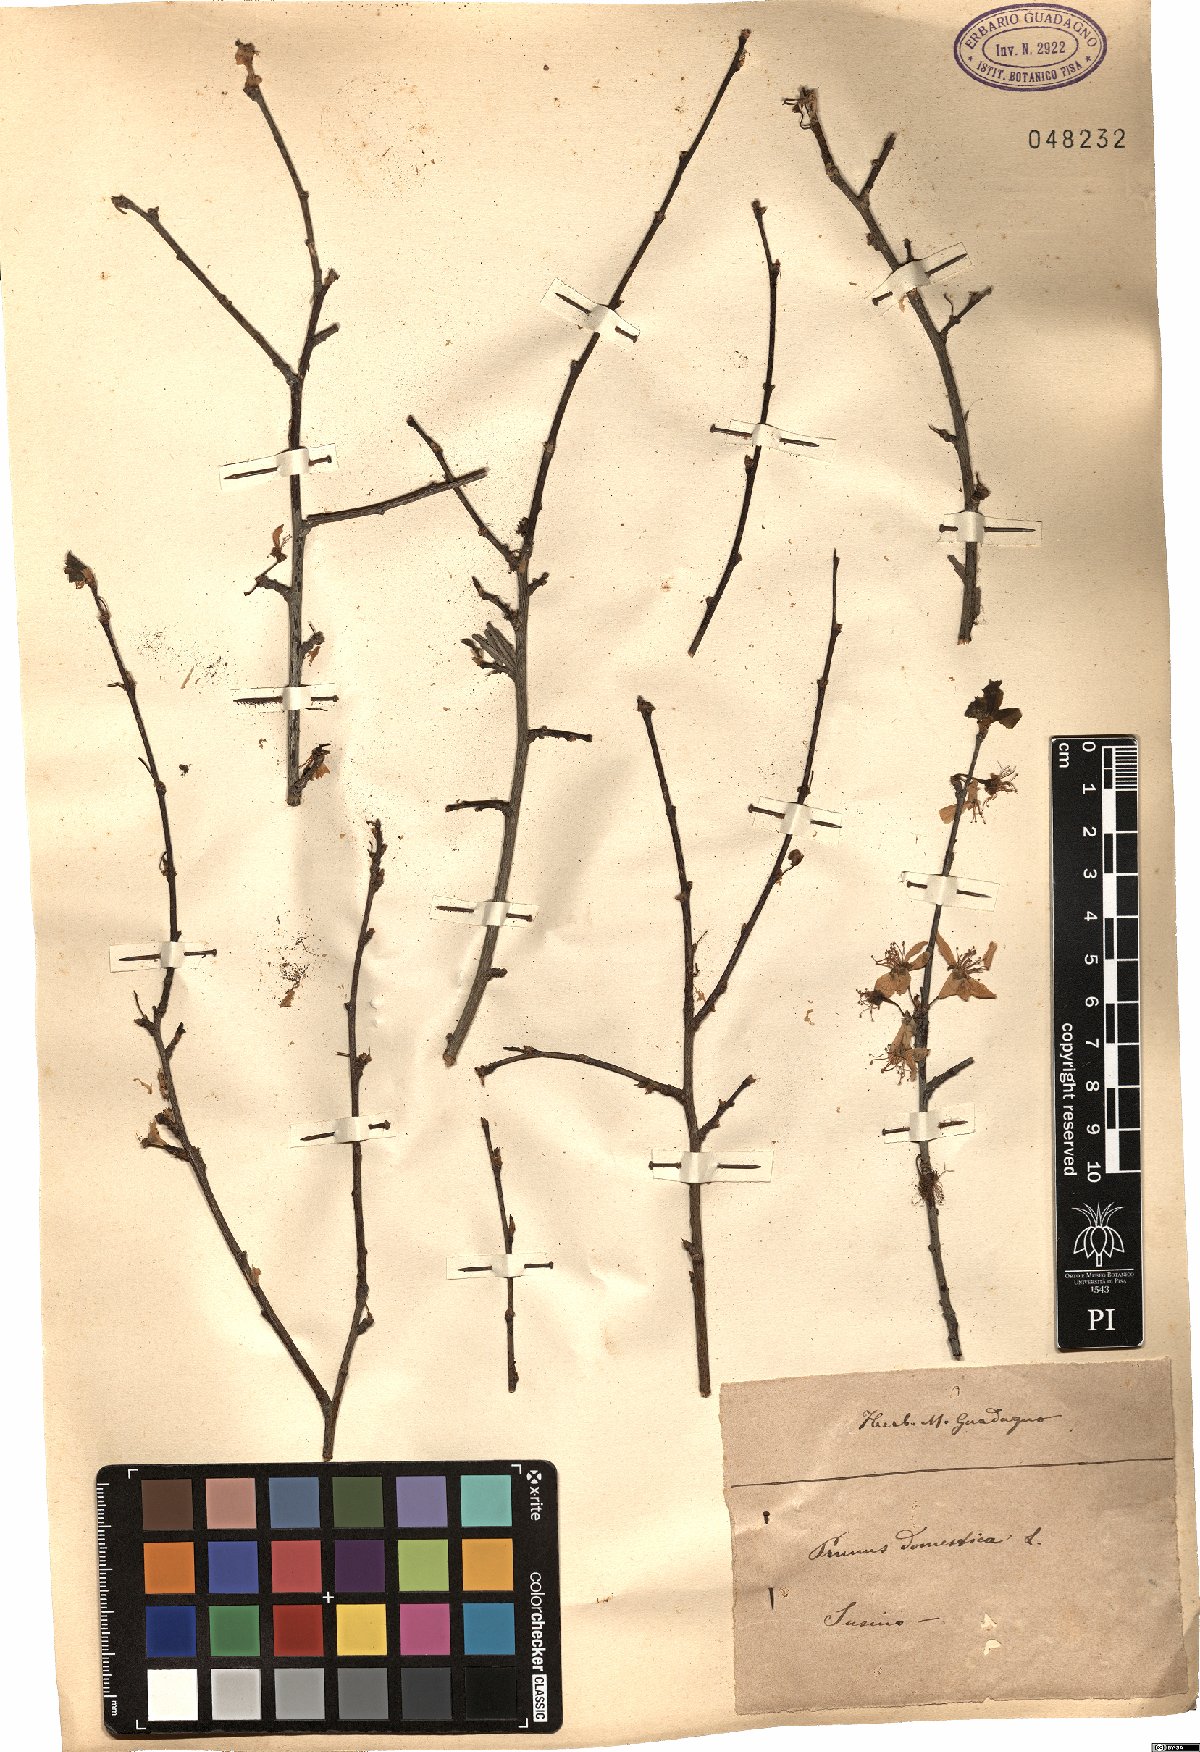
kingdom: Plantae
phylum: Tracheophyta
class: Magnoliopsida
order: Rosales
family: Rosaceae
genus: Prunus
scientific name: Prunus domestica
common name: Wild plum
